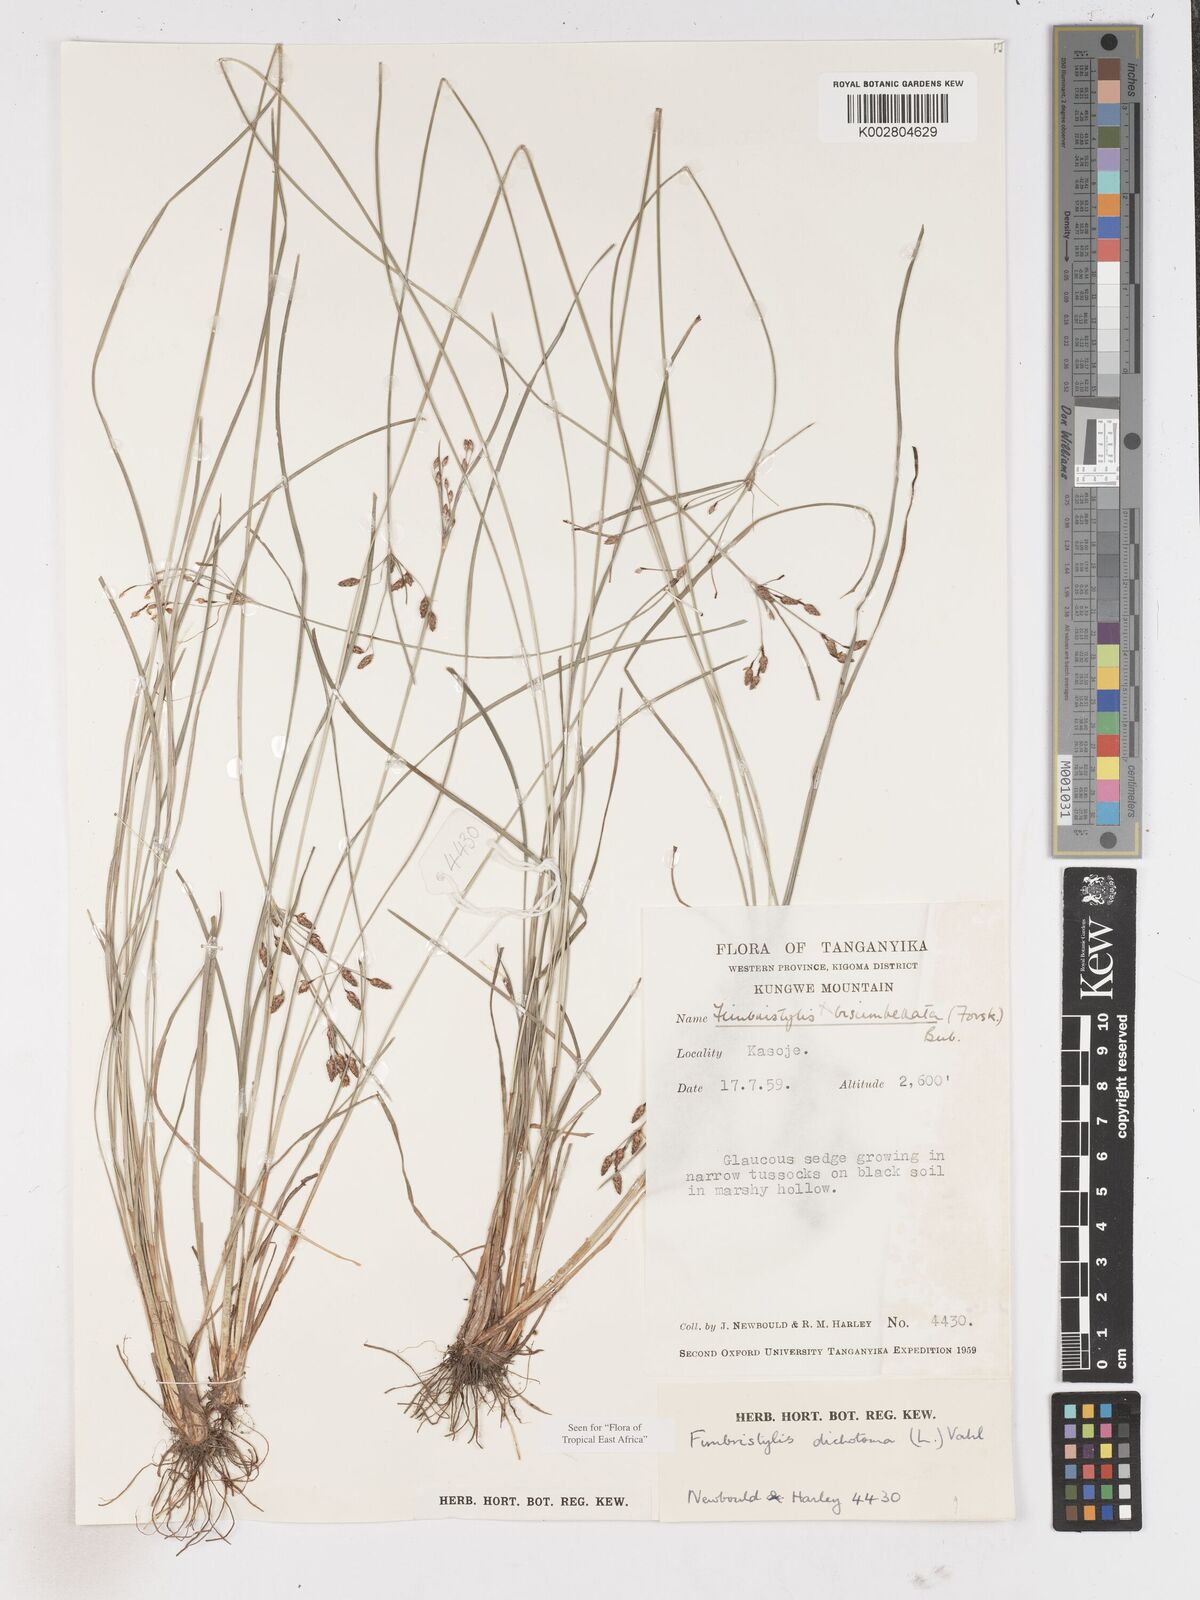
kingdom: Plantae
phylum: Tracheophyta
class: Liliopsida
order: Poales
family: Cyperaceae
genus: Fimbristylis
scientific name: Fimbristylis dichotoma
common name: Forked fimbry
